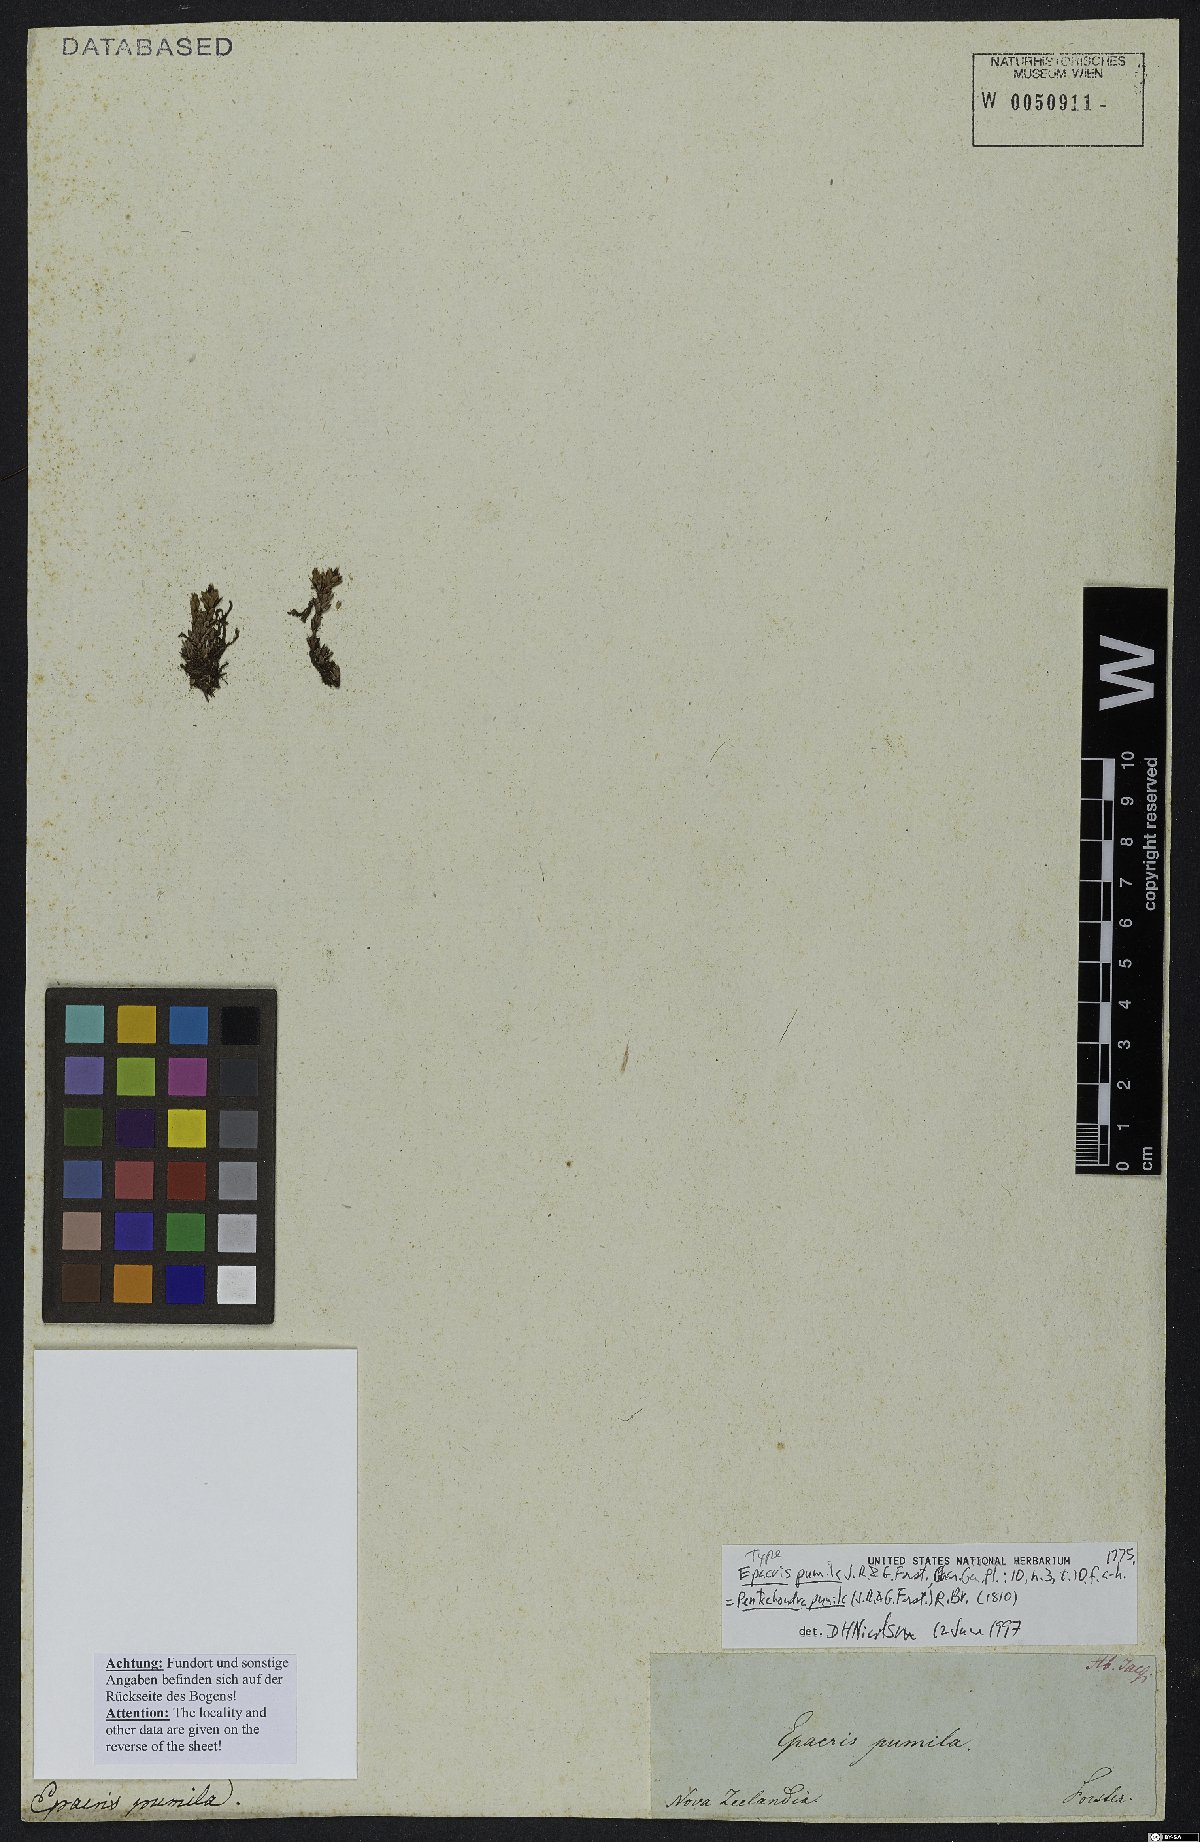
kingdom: Plantae
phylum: Tracheophyta
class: Magnoliopsida
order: Ericales
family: Ericaceae
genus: Pentachondra
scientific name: Pentachondra pumila
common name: Carpet-heath
